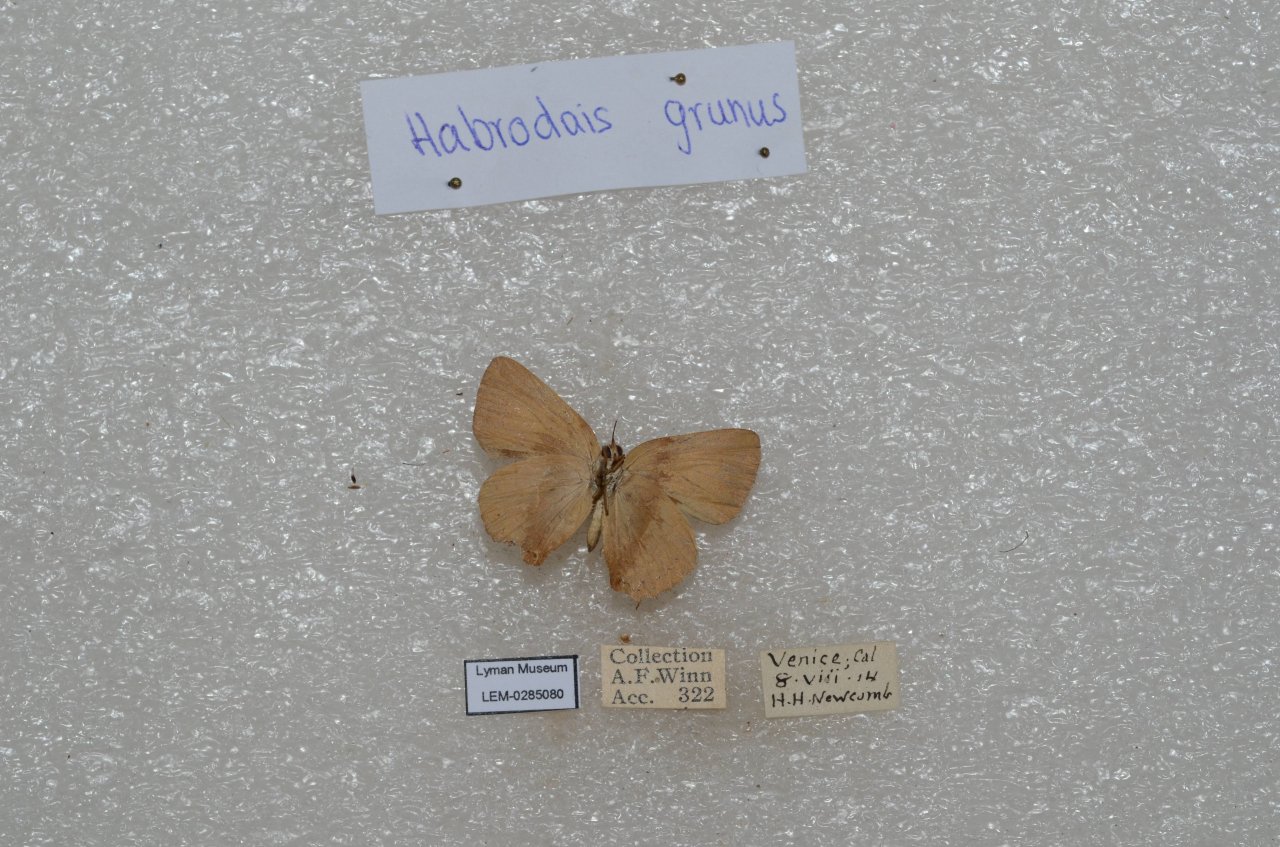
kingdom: Animalia
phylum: Arthropoda
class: Insecta
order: Lepidoptera
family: Lycaenidae
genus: Habrodais
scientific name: Habrodais grunus
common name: Golden Hairstreak
